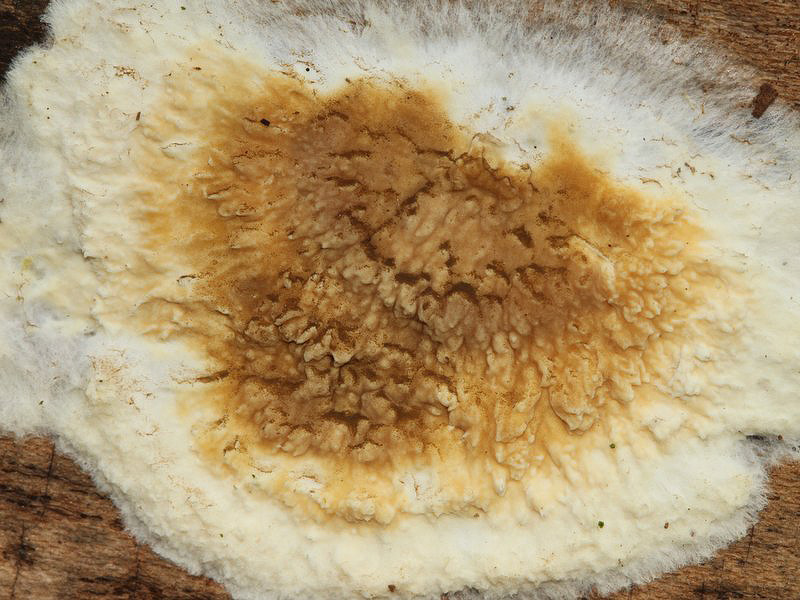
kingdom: Fungi
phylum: Basidiomycota
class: Agaricomycetes
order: Boletales
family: Coniophoraceae
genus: Coniophora
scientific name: Coniophora puteana
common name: gul tømmersvamp
